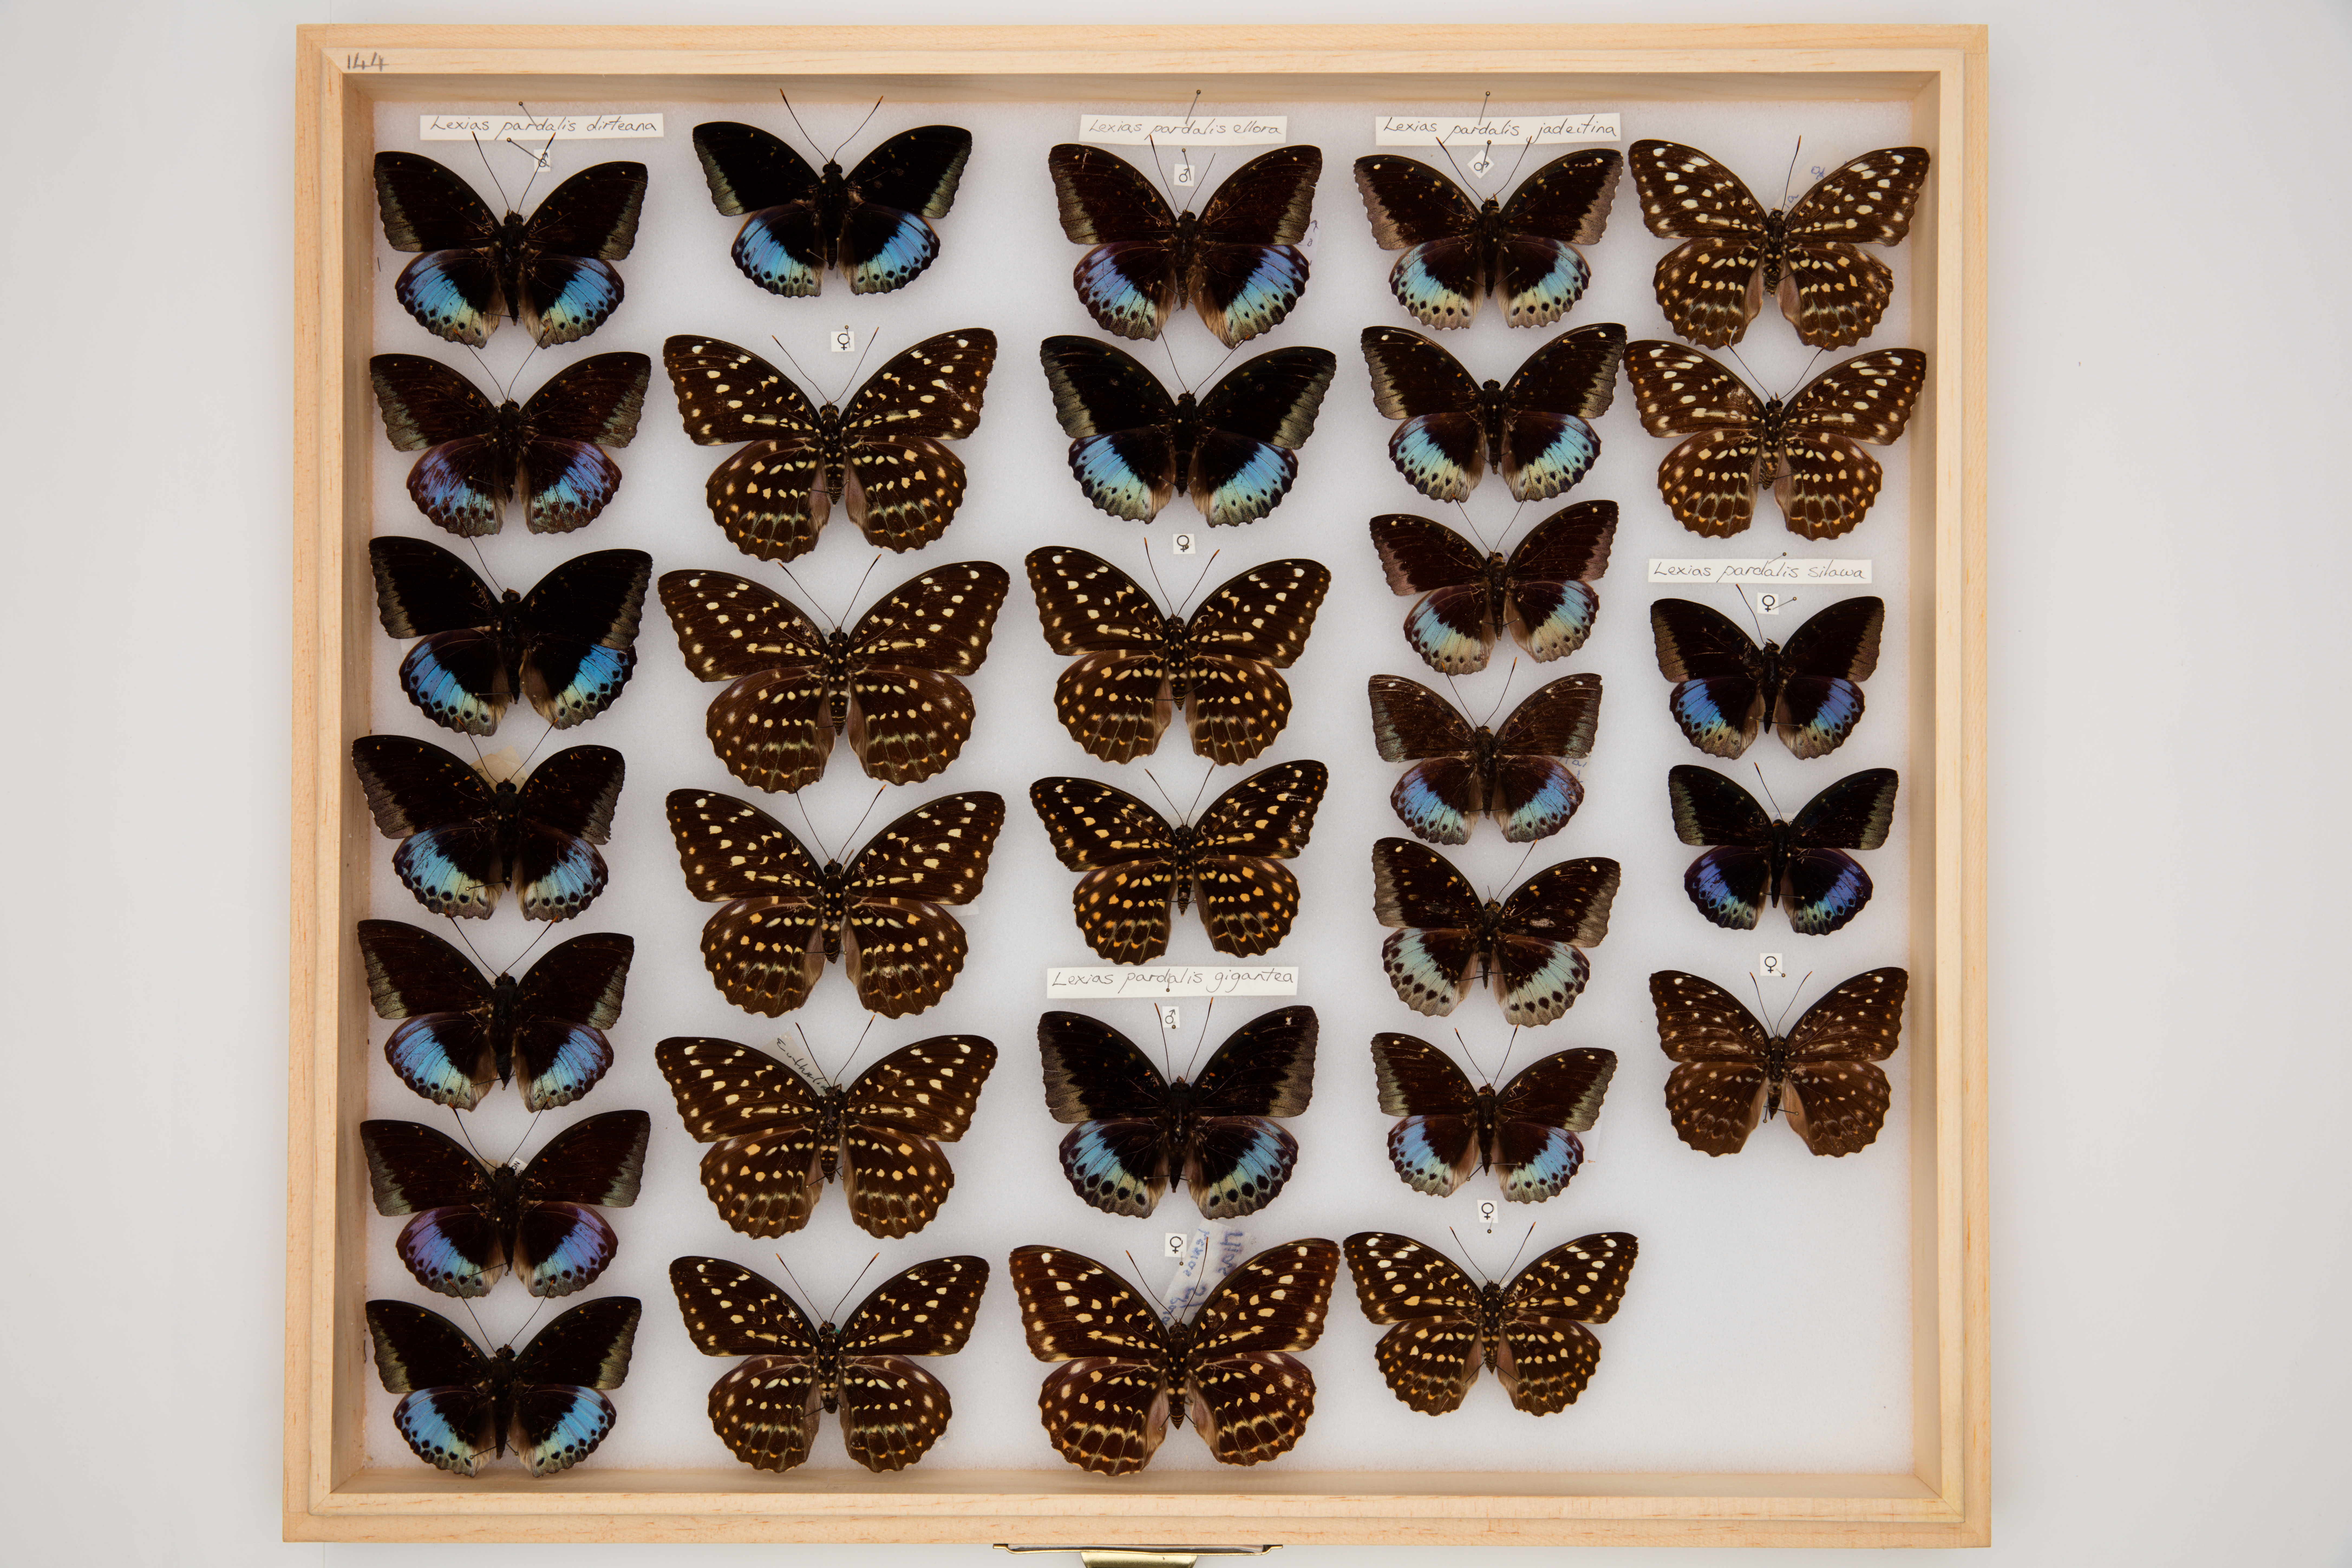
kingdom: Animalia
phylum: Arthropoda
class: Insecta
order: Lepidoptera
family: Nymphalidae
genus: Lexias
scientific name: Lexias pardalis
